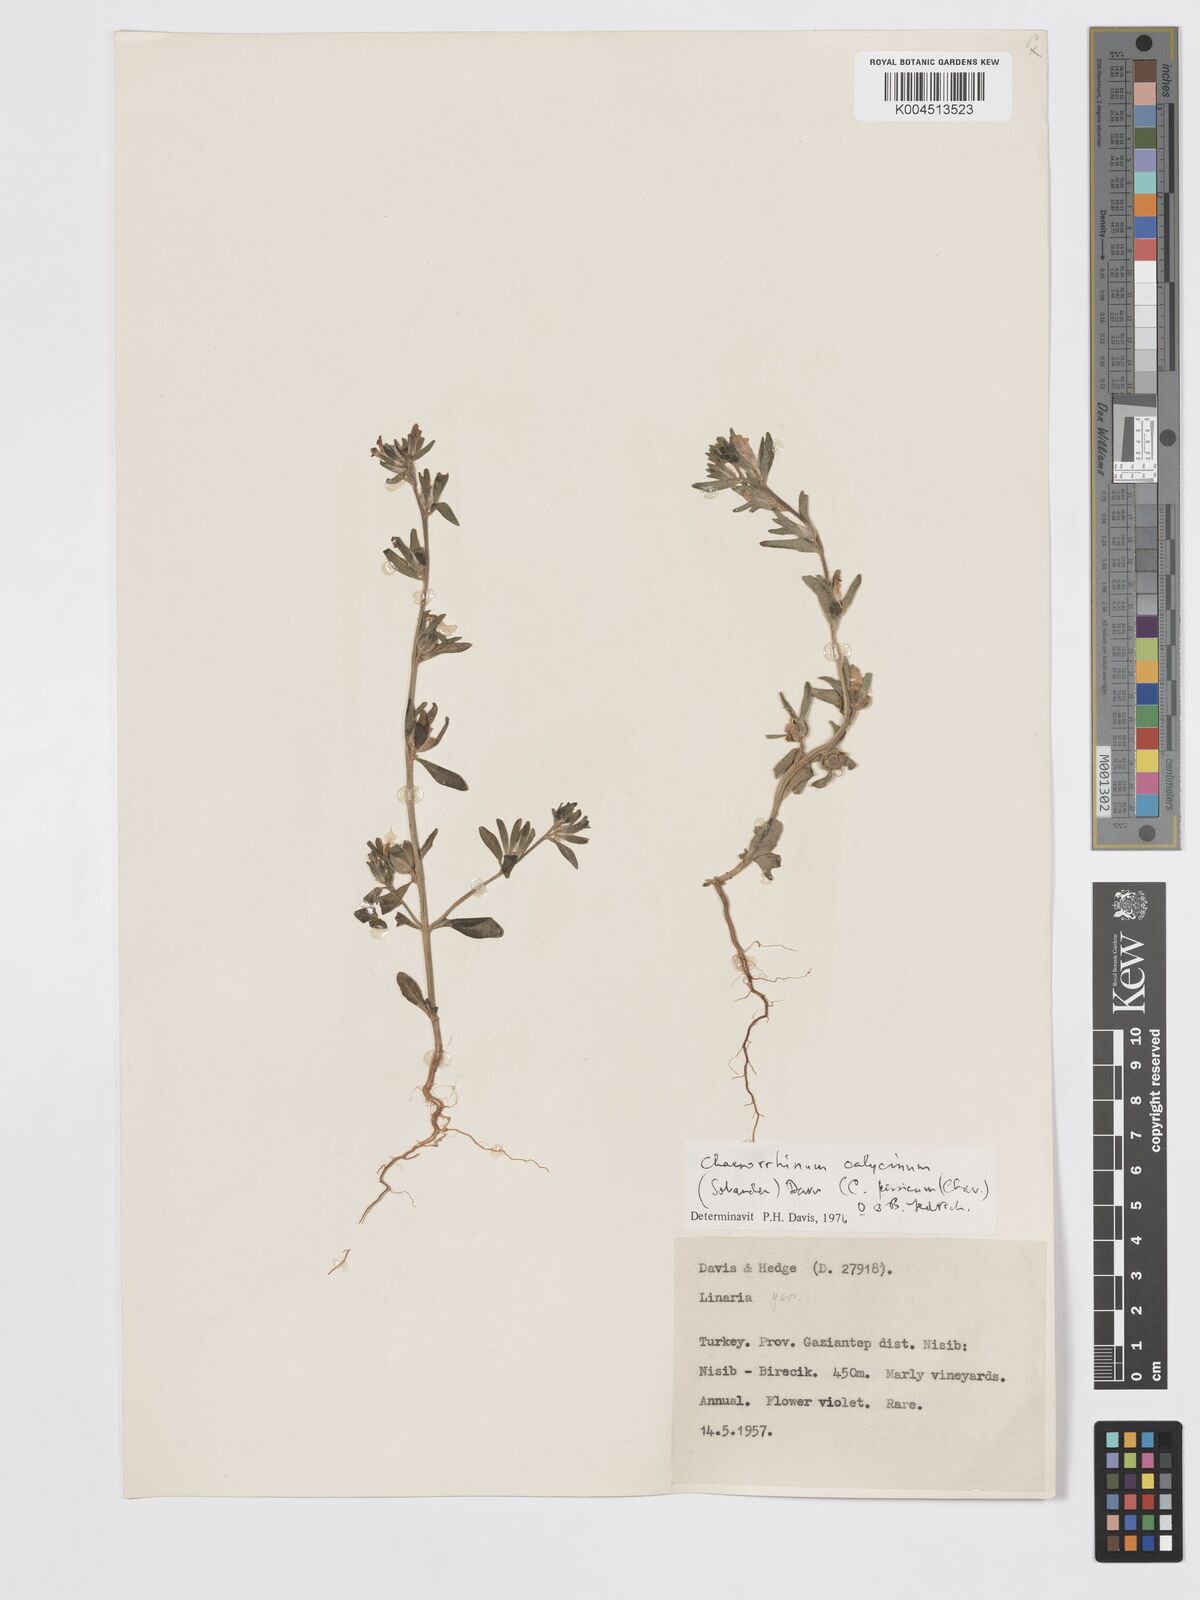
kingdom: Plantae
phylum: Tracheophyta
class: Magnoliopsida
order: Lamiales
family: Plantaginaceae
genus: Chaenorhinum
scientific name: Chaenorhinum calycinum
